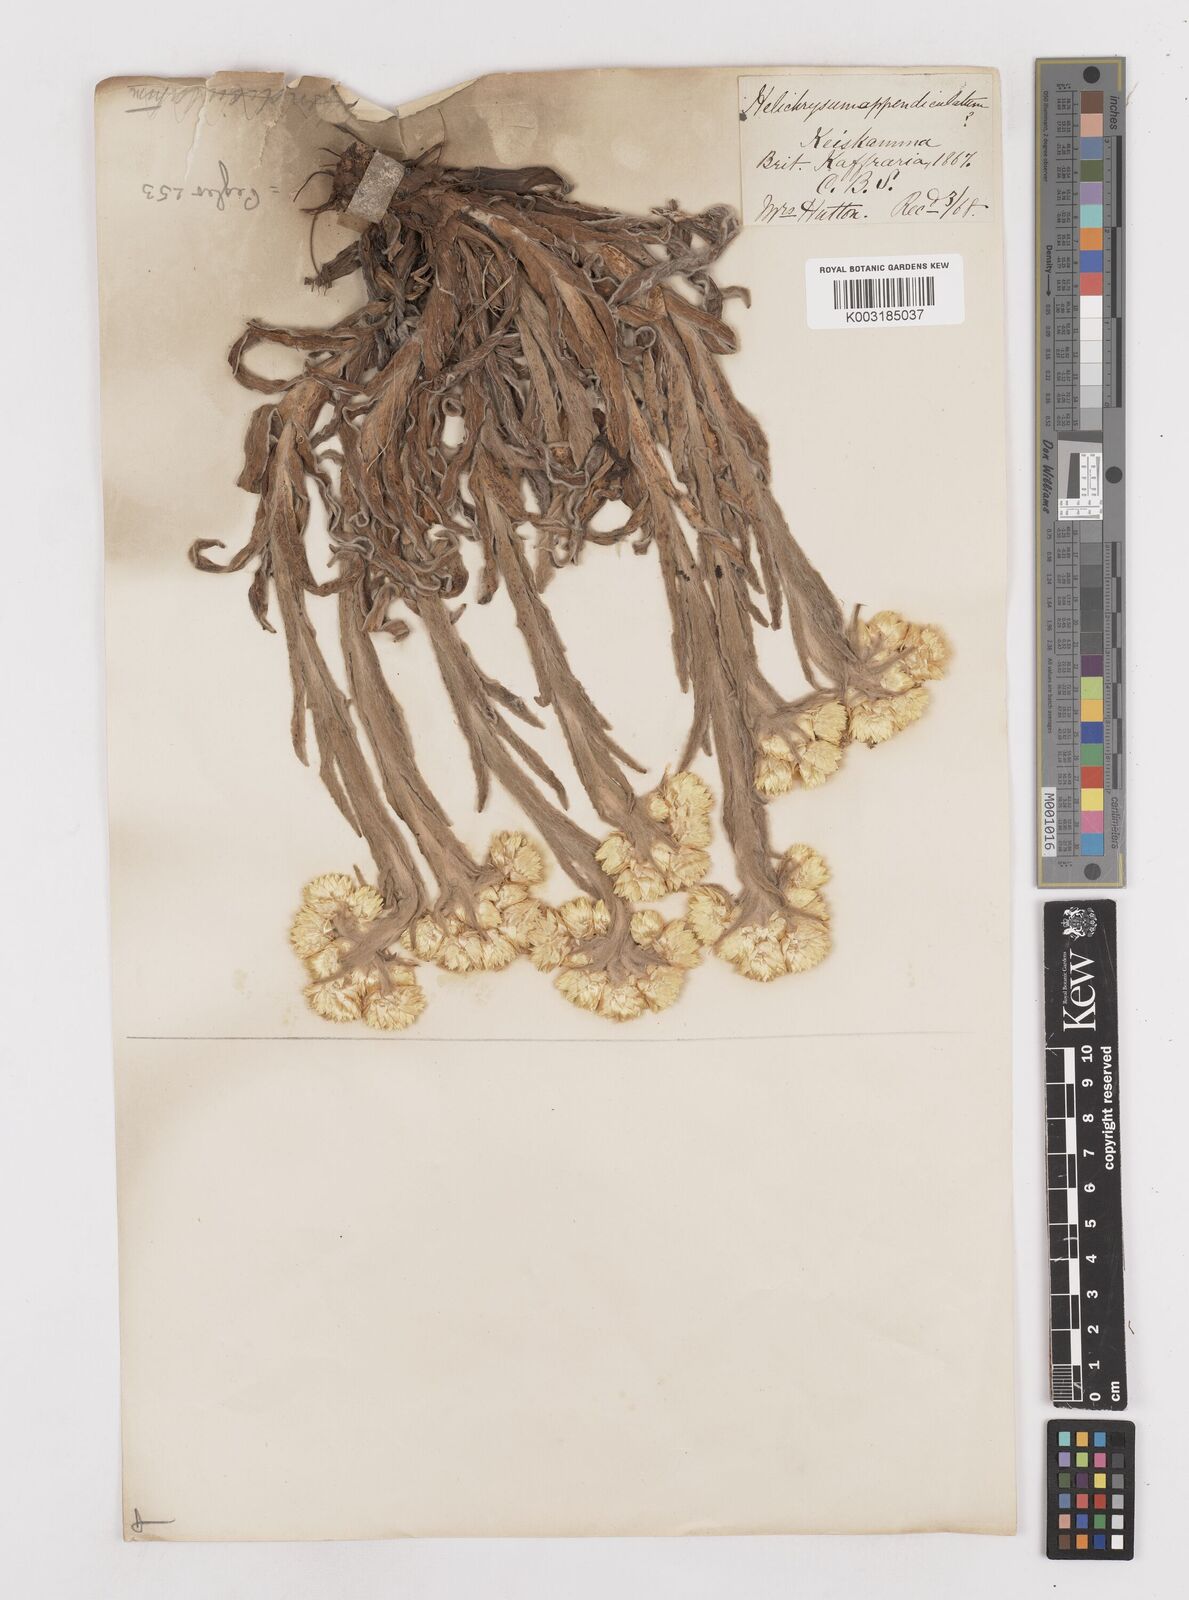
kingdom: Plantae
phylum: Tracheophyta
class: Magnoliopsida
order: Asterales
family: Asteraceae
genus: Helichrysum
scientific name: Helichrysum appendiculatum
